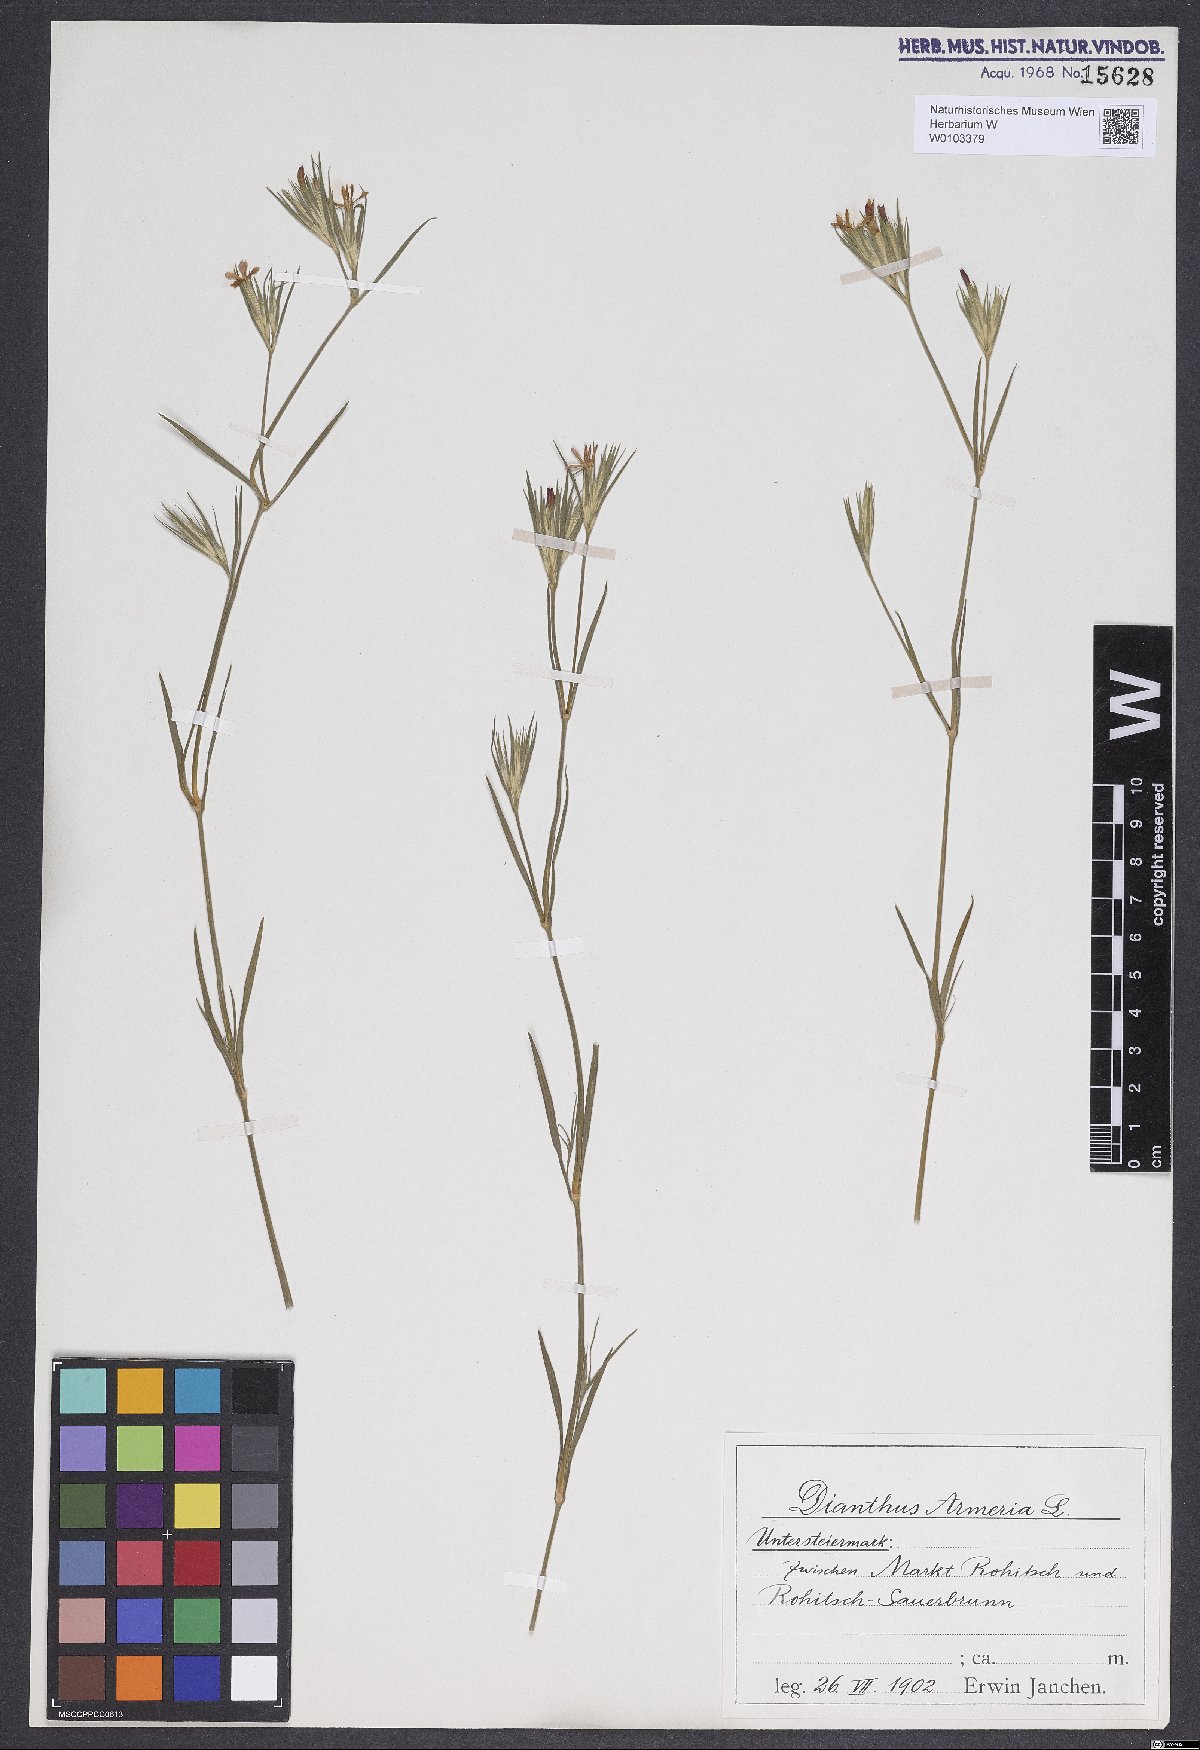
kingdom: Plantae
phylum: Tracheophyta
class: Magnoliopsida
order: Caryophyllales
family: Caryophyllaceae
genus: Dianthus
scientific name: Dianthus armeria
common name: Deptford pink
